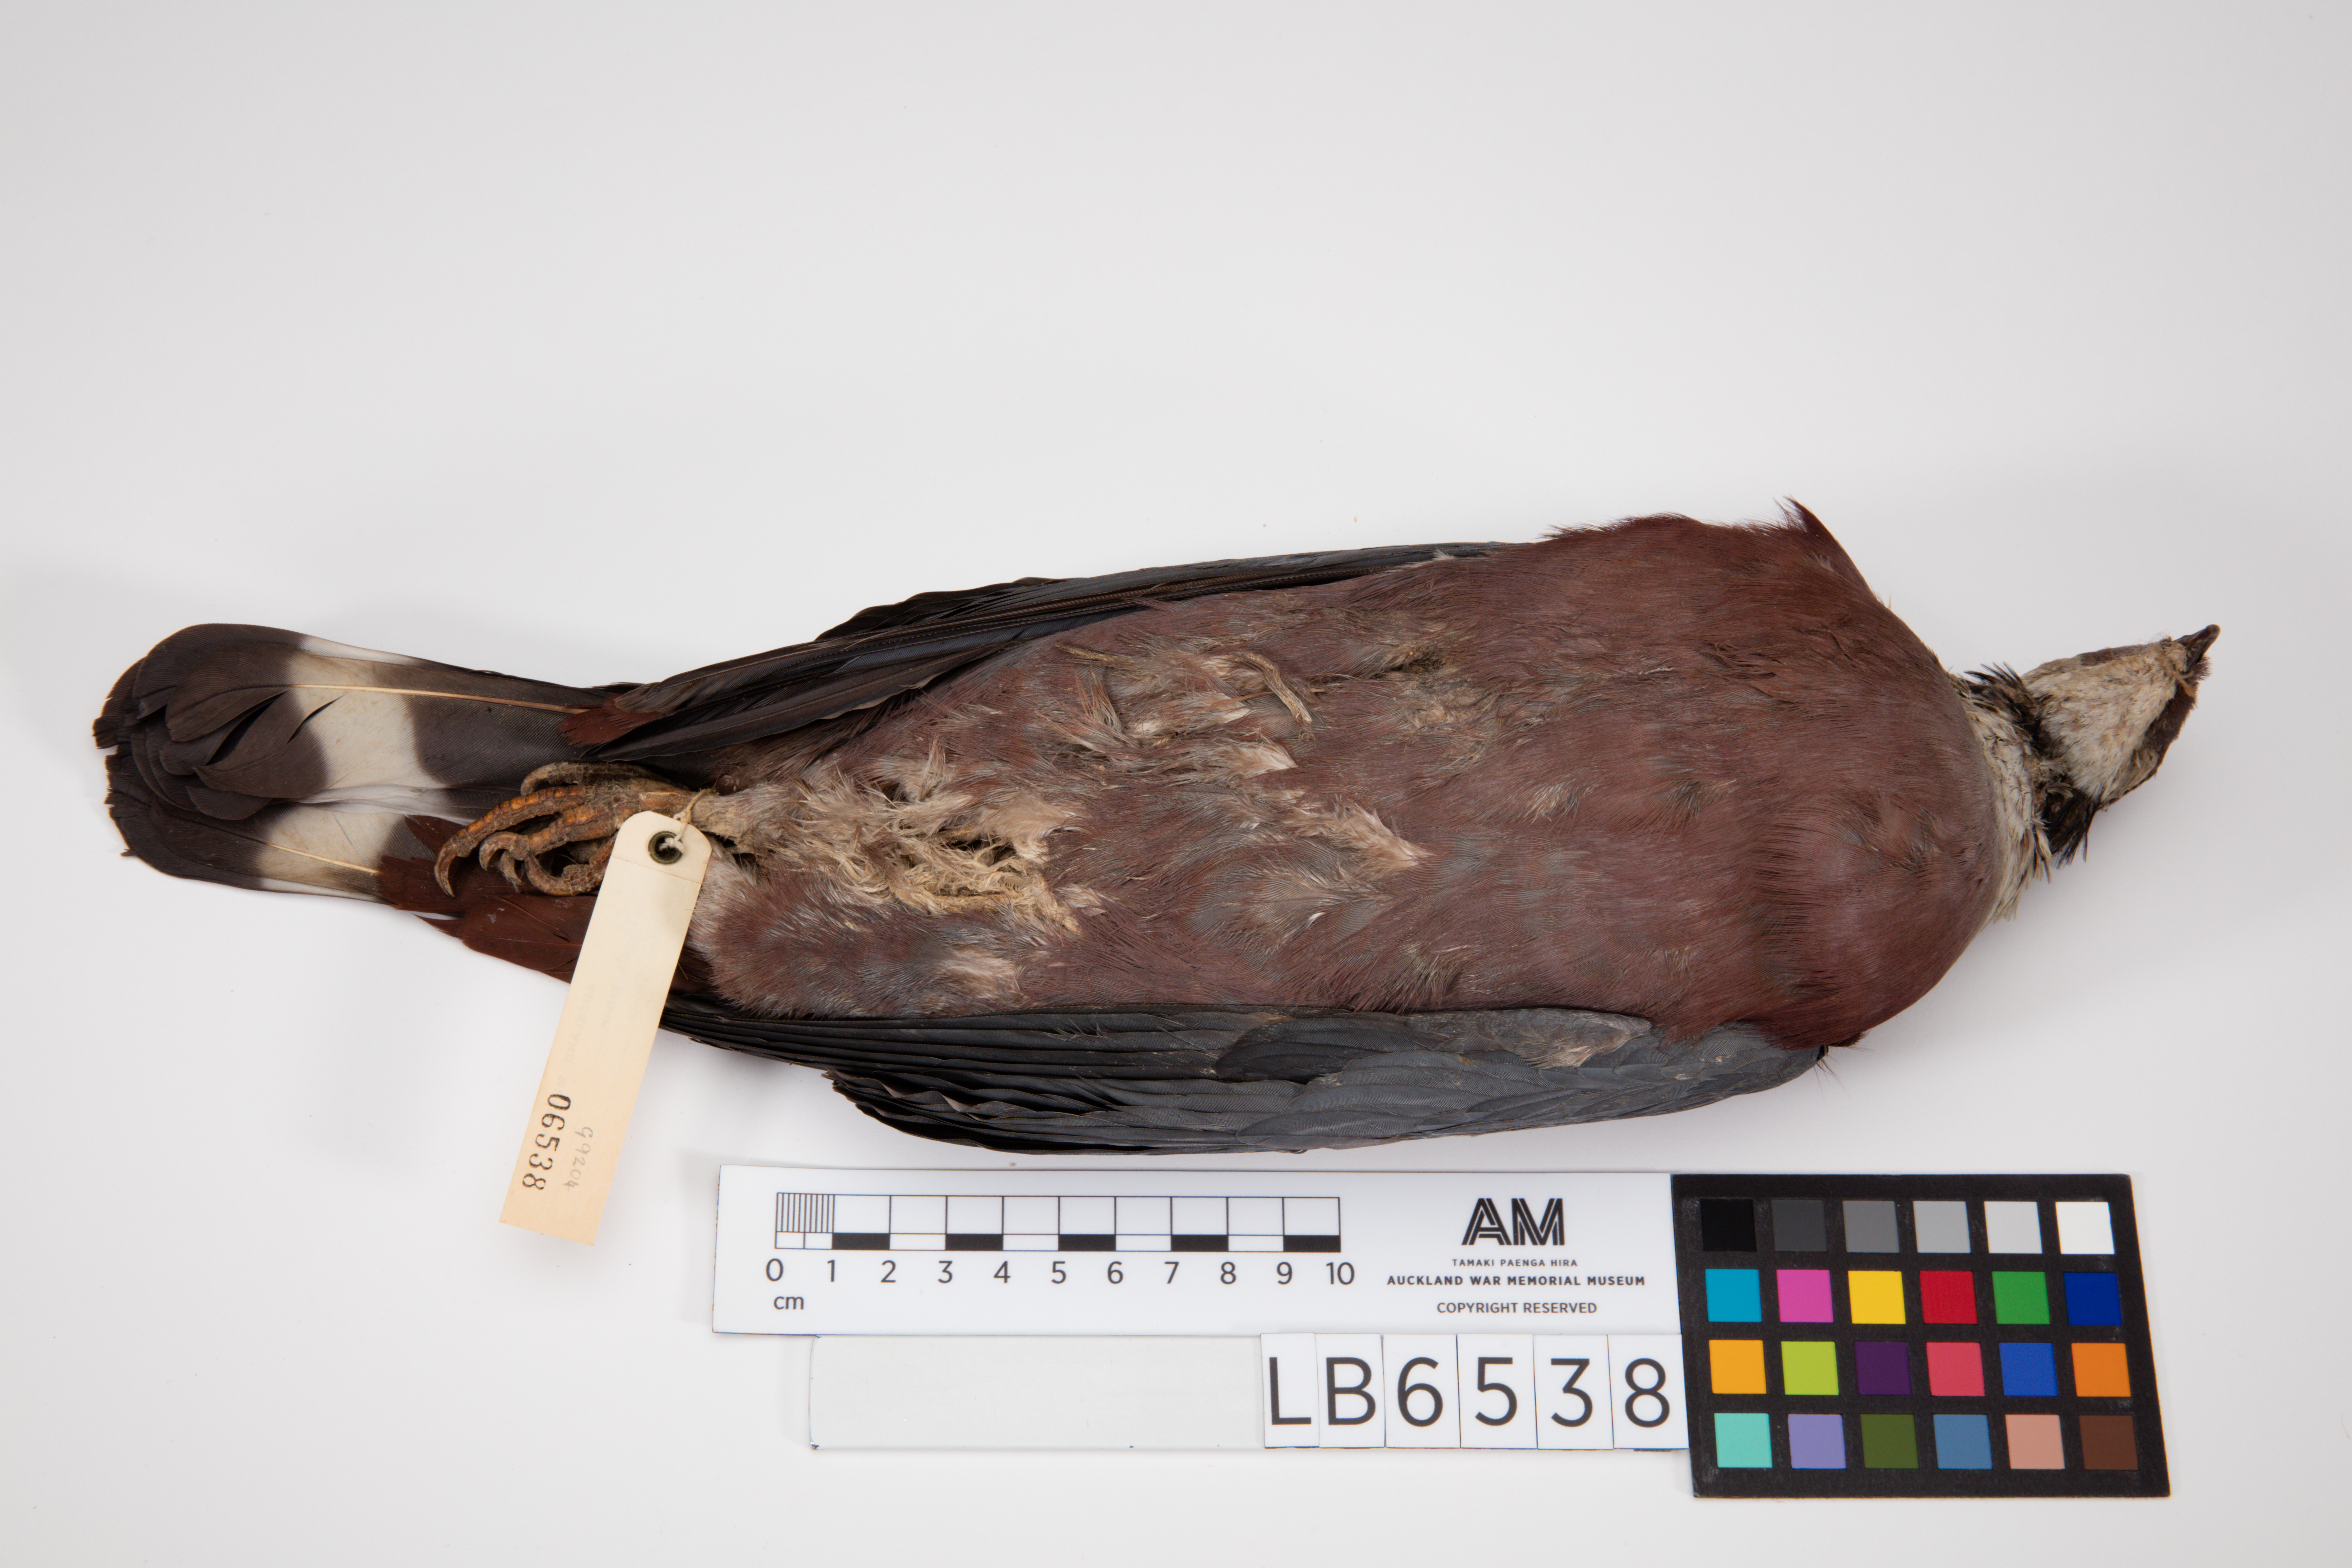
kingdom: Animalia
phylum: Chordata
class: Aves
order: Columbiformes
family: Columbidae
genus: Ducula
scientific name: Ducula pinon
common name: Pinon's imperial pigeon
